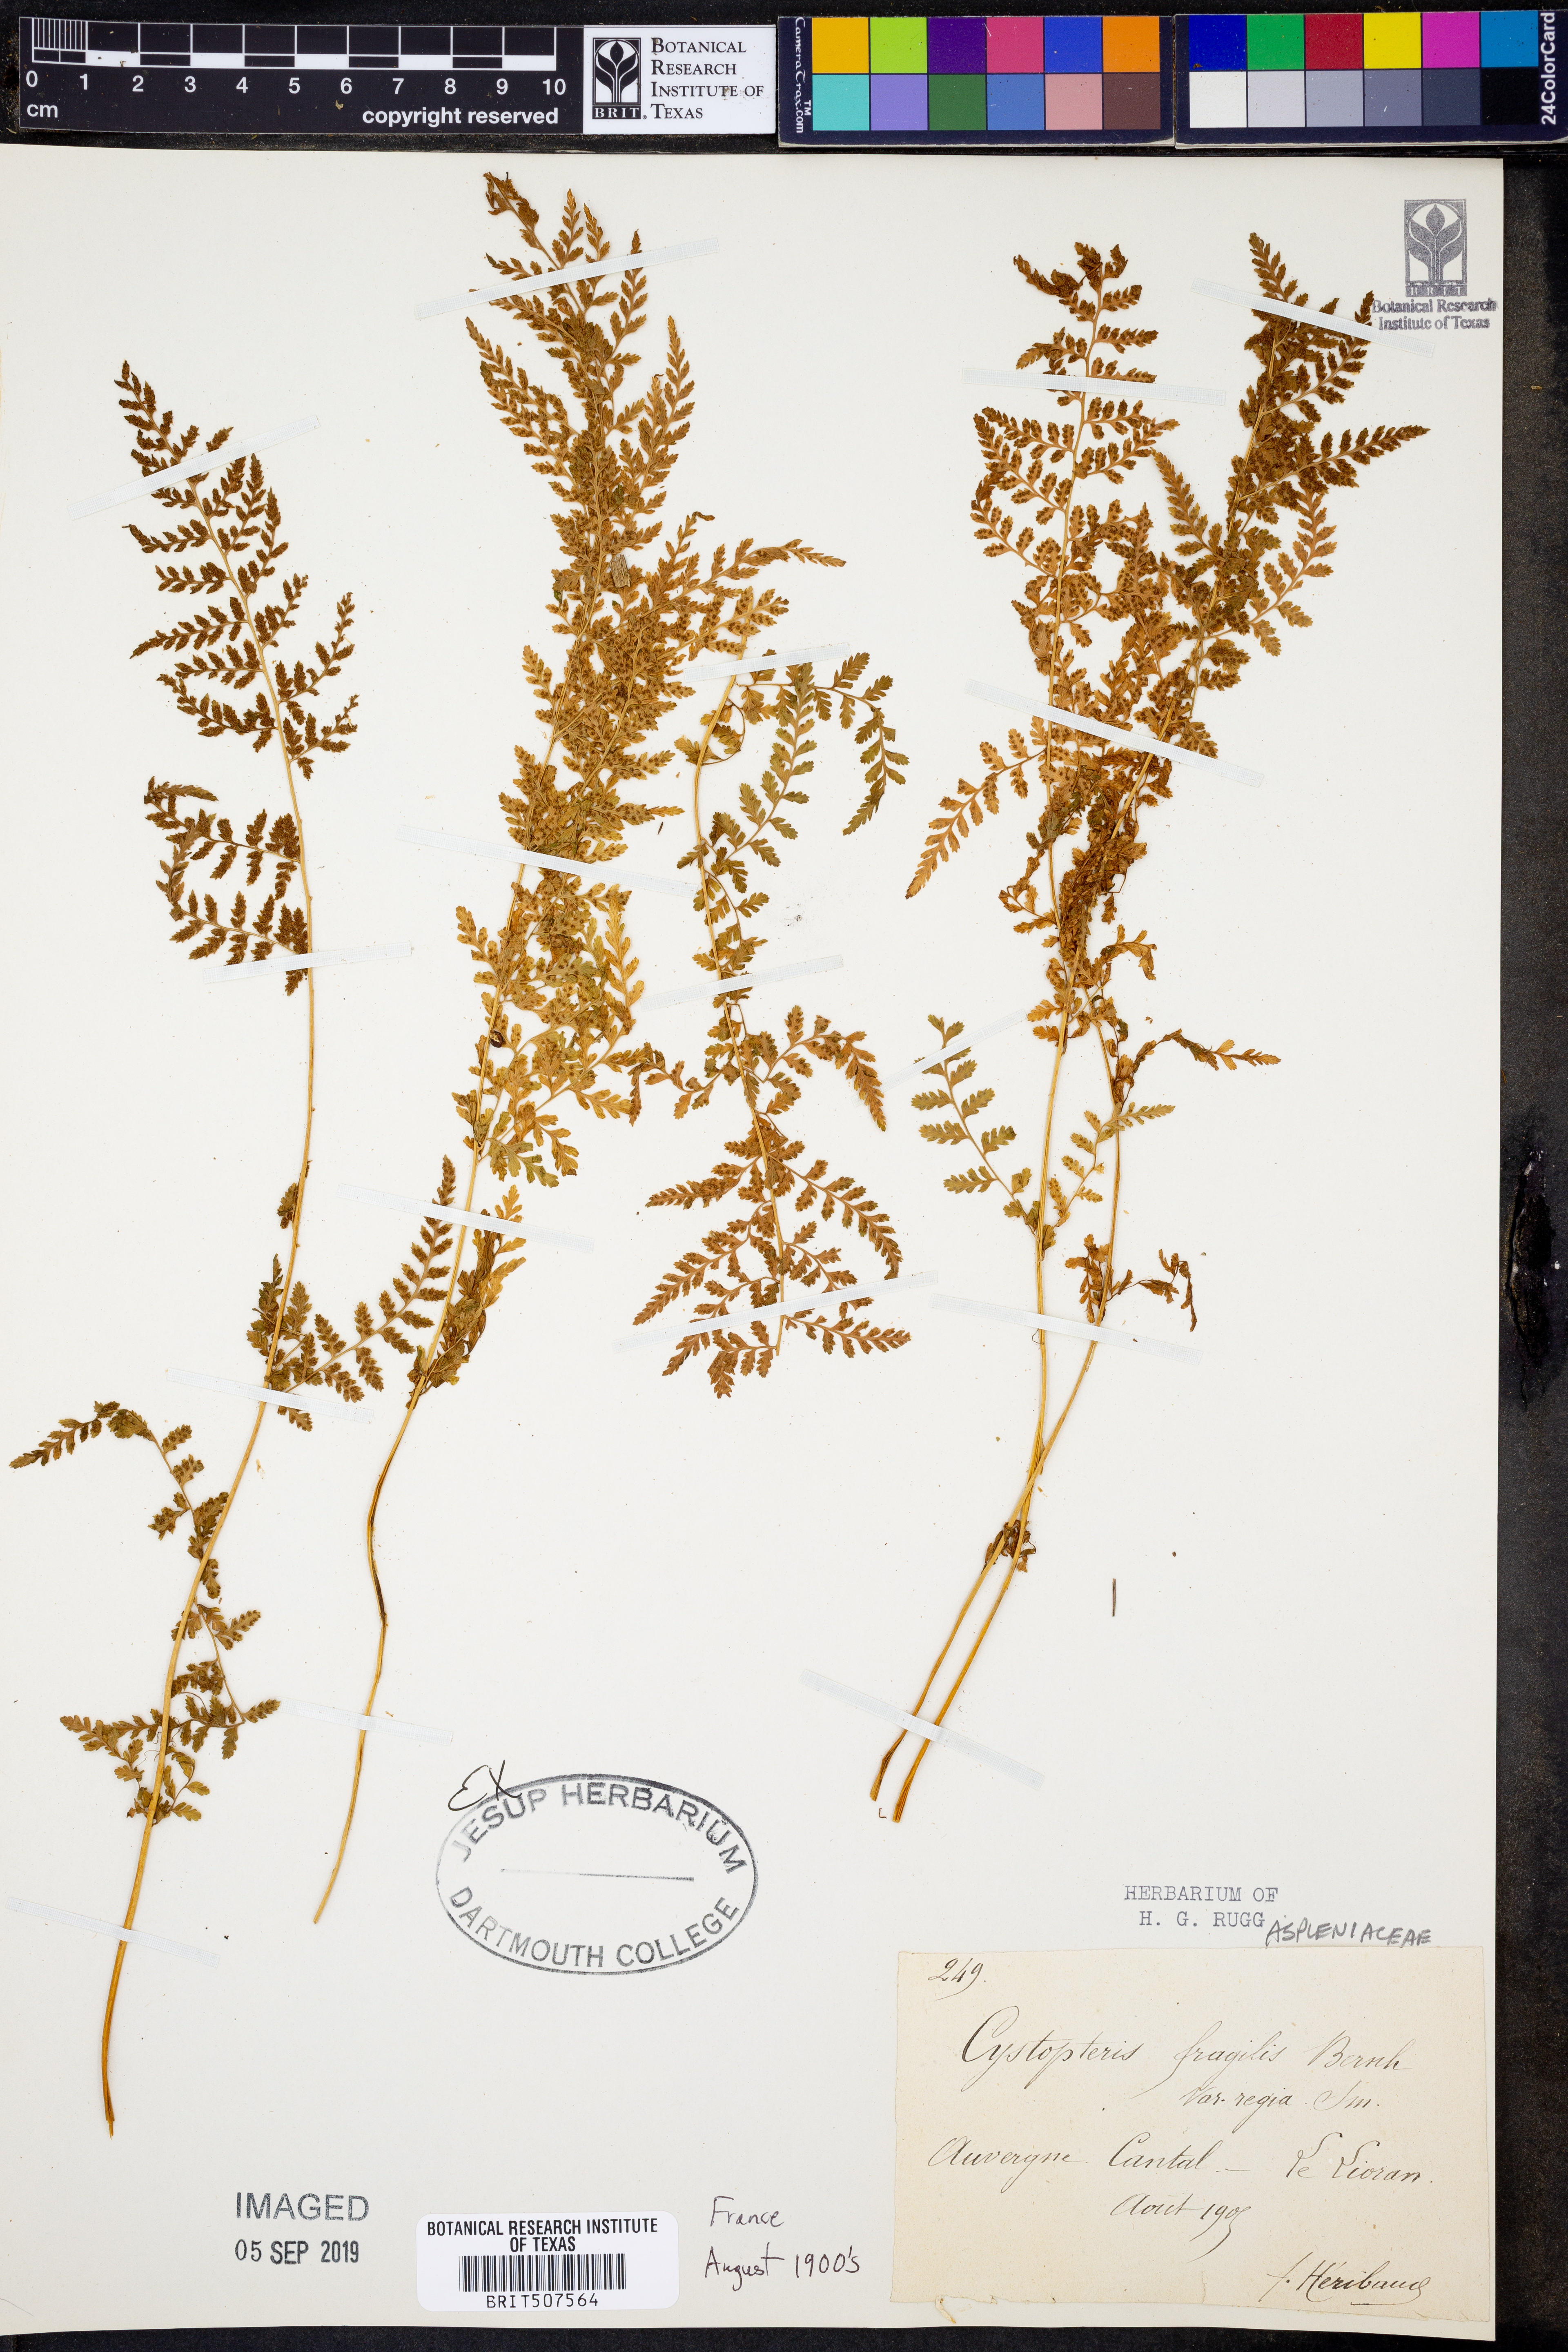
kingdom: Plantae
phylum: Tracheophyta
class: Polypodiopsida
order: Polypodiales
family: Cystopteridaceae
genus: Cystopteris
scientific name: Cystopteris fragilis
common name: Brittle bladder fern
